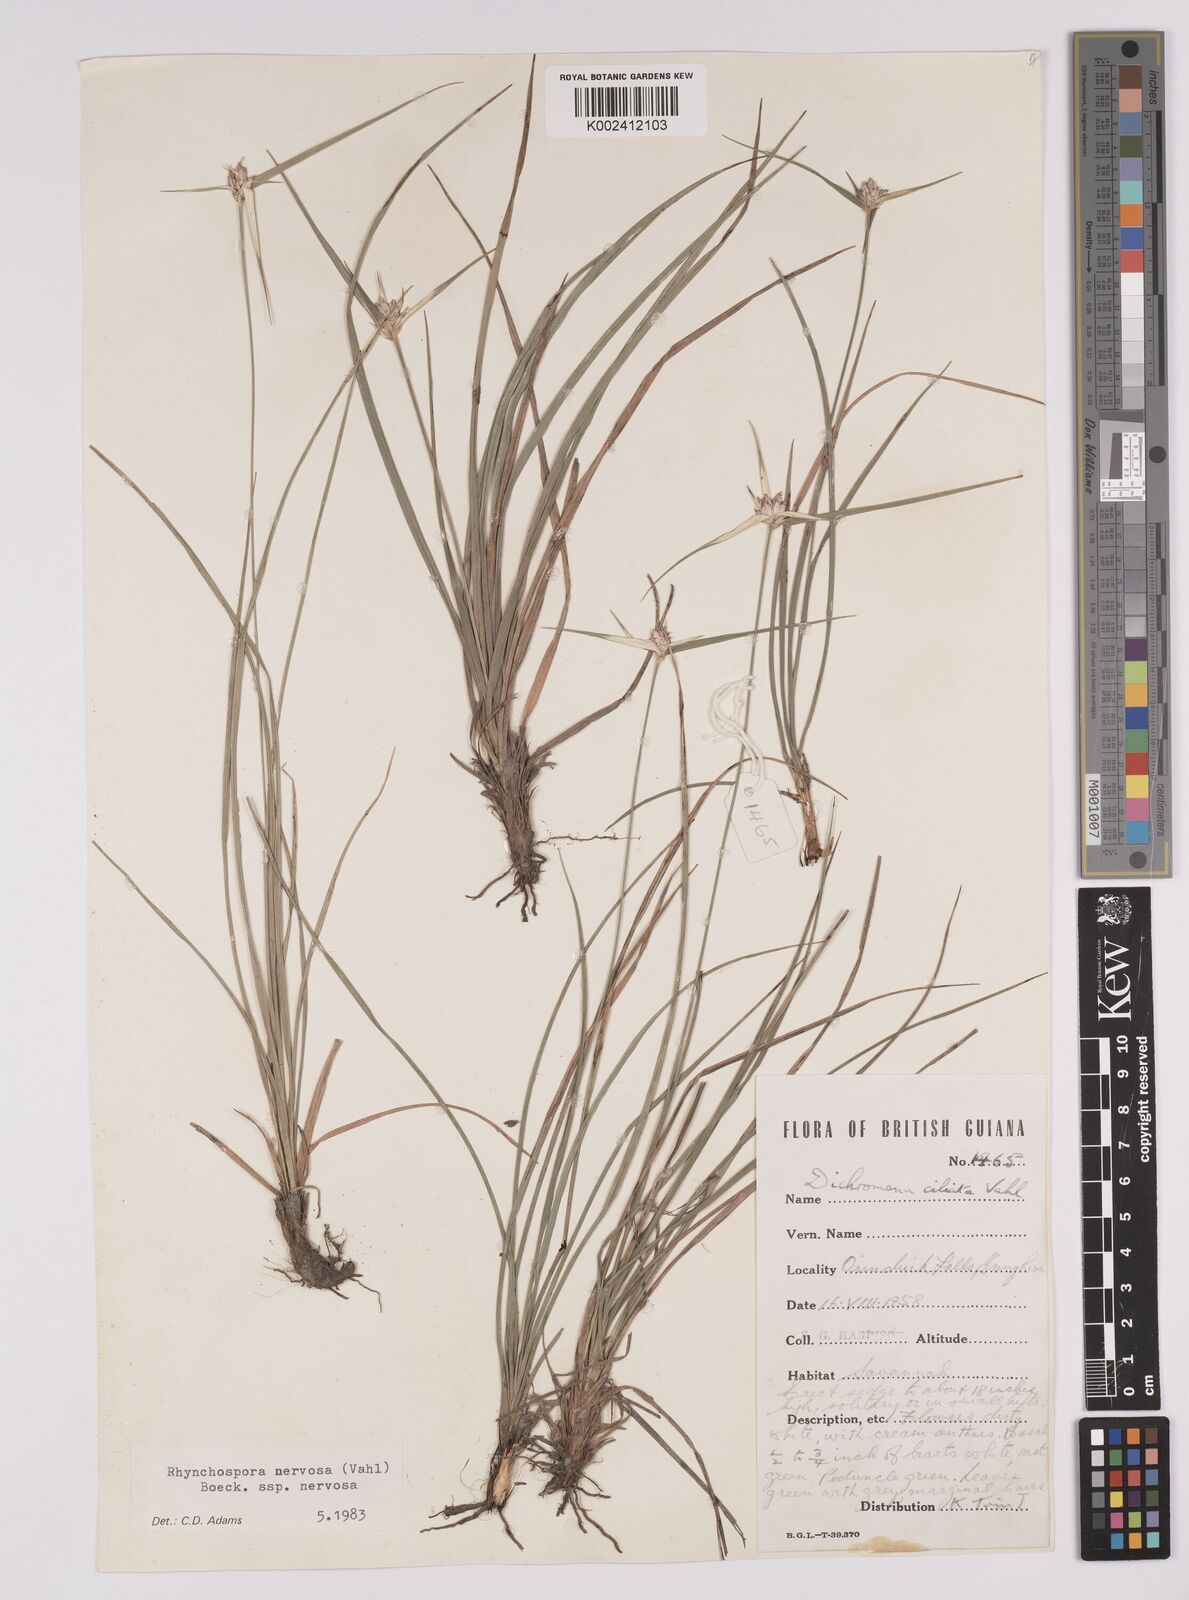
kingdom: Plantae
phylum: Tracheophyta
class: Liliopsida
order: Poales
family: Cyperaceae
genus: Rhynchospora
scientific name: Rhynchospora nervosa
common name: Star sedge
